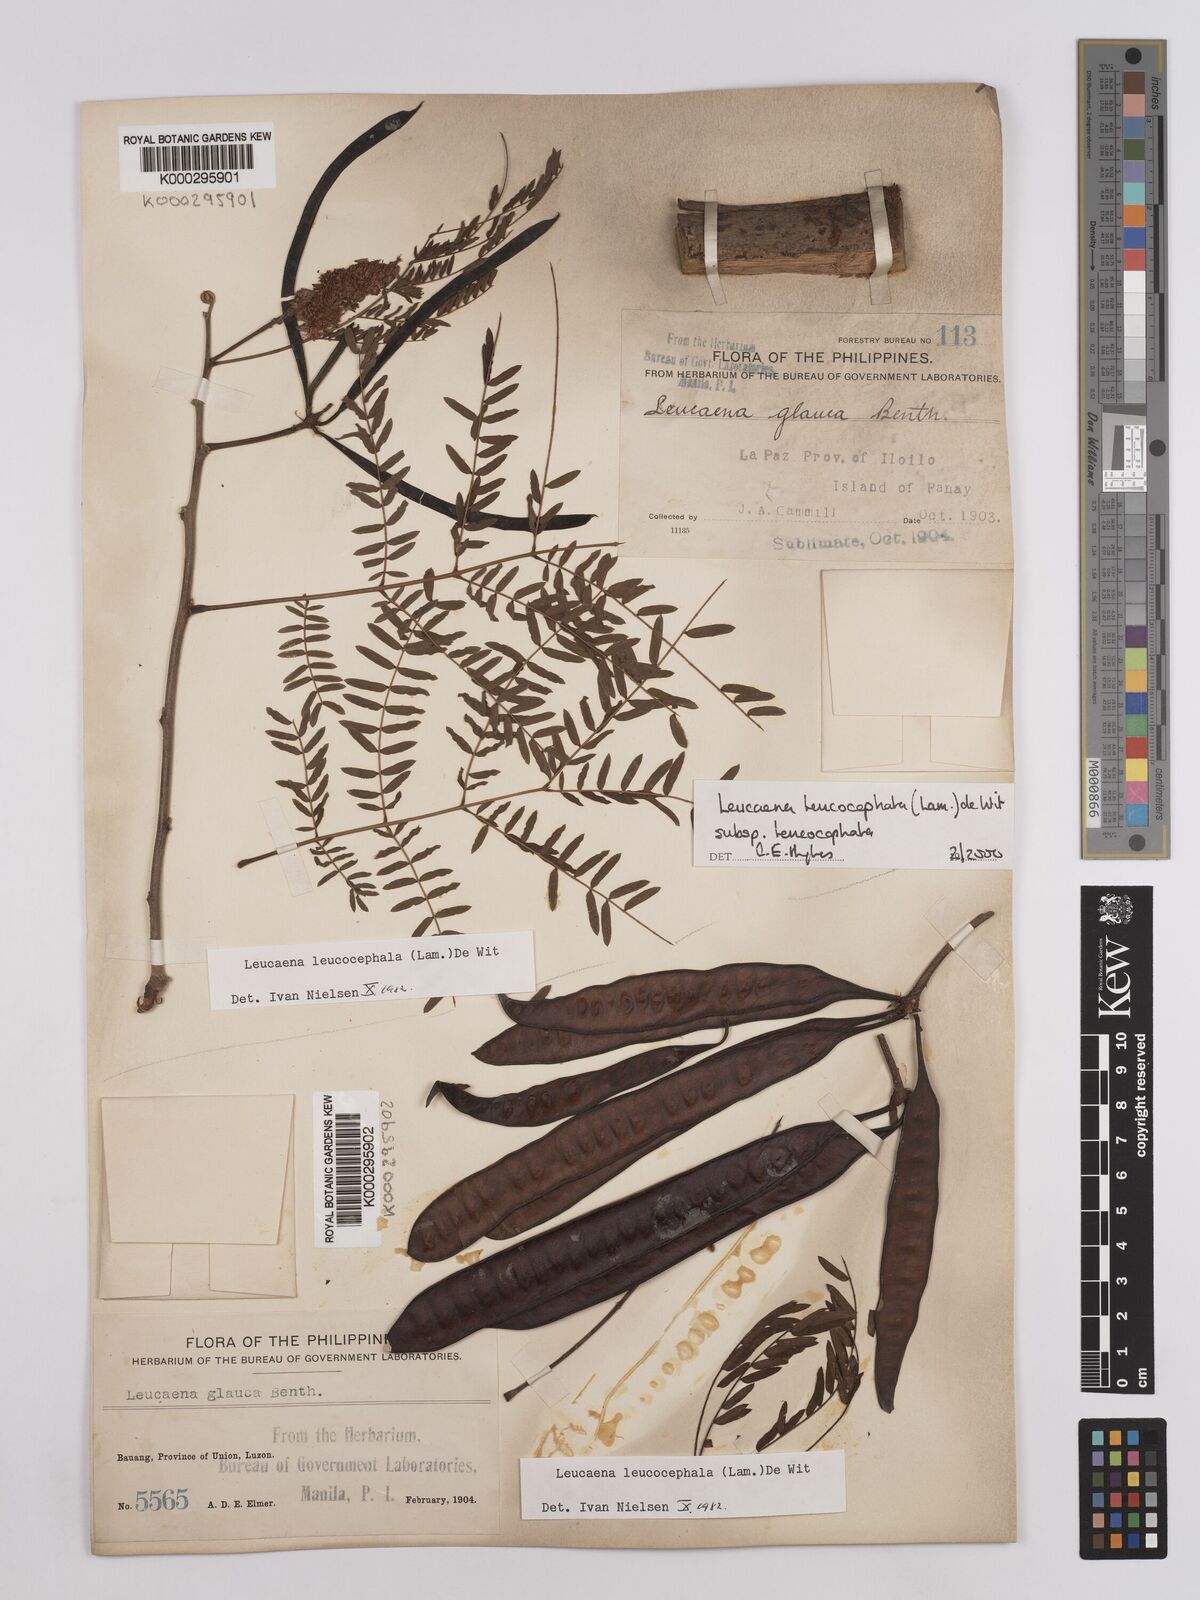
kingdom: Plantae
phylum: Tracheophyta
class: Magnoliopsida
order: Fabales
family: Fabaceae
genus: Leucaena
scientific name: Leucaena leucocephala
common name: White leadtree
